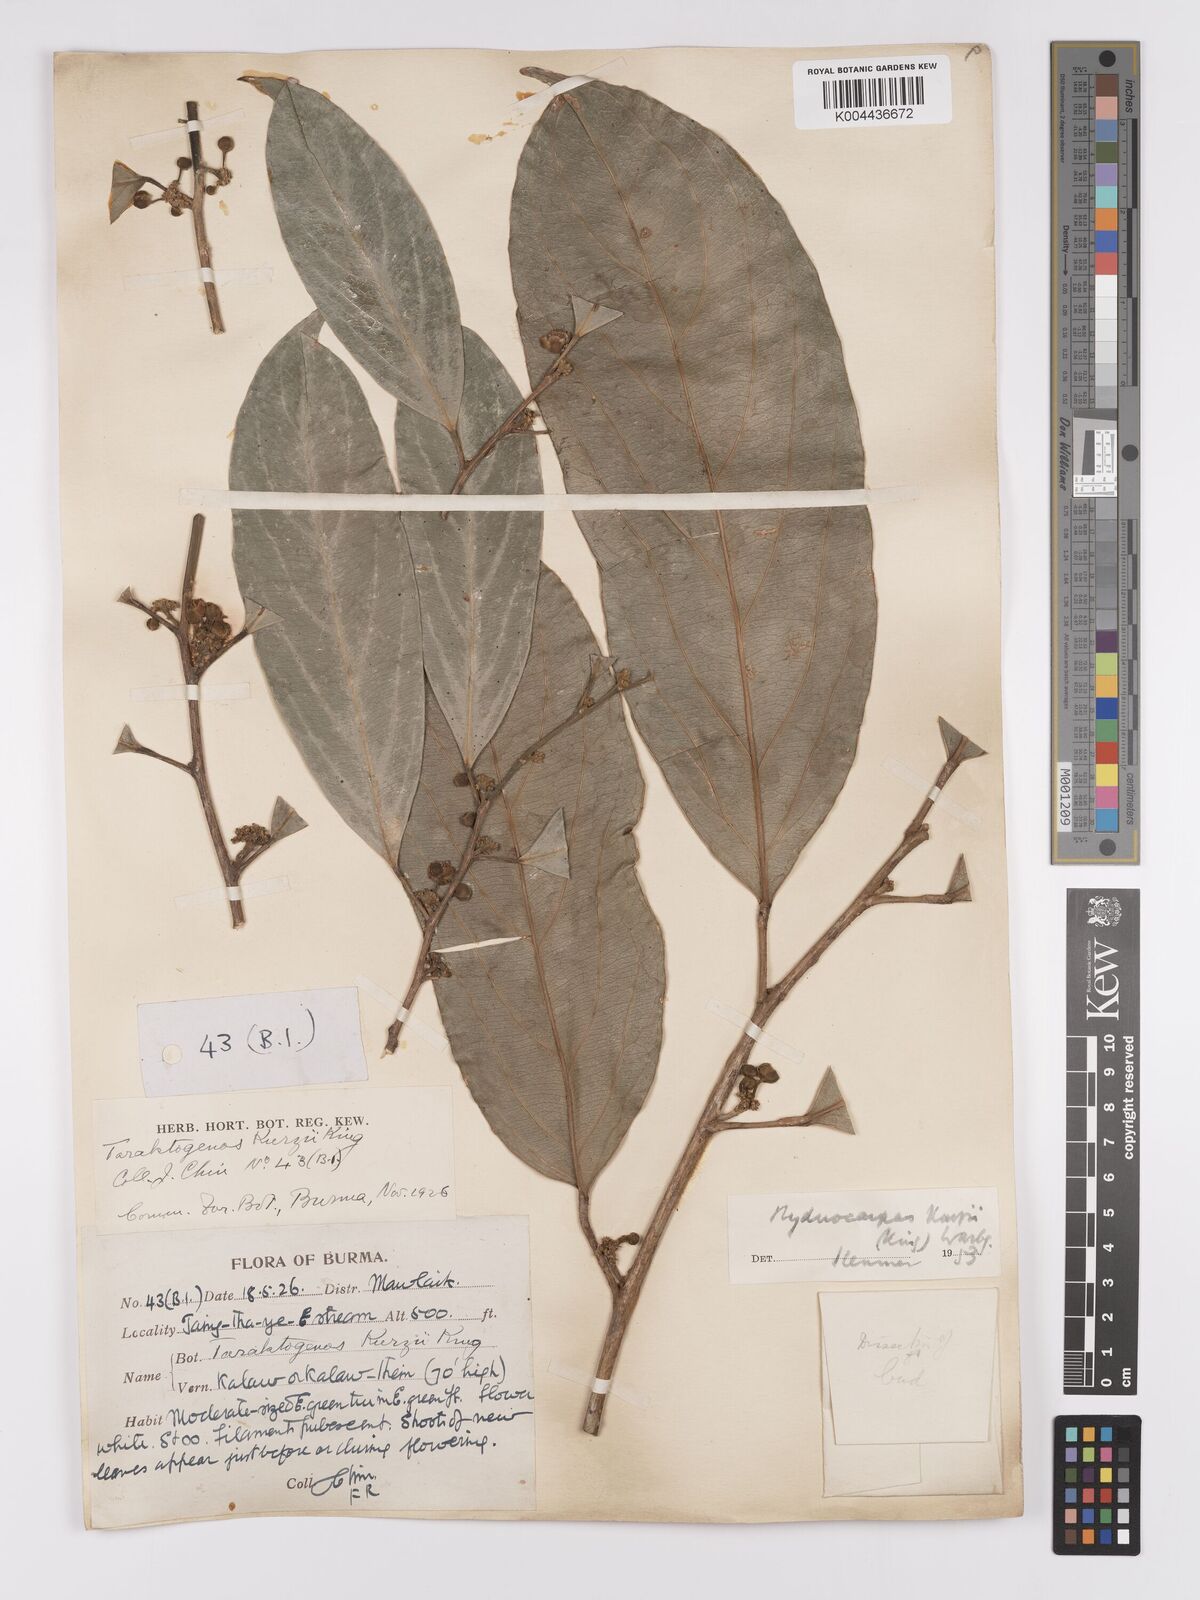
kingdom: Plantae
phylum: Tracheophyta
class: Magnoliopsida
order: Malpighiales
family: Achariaceae
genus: Hydnocarpus
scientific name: Hydnocarpus kurzii
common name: Chaulmoogra
